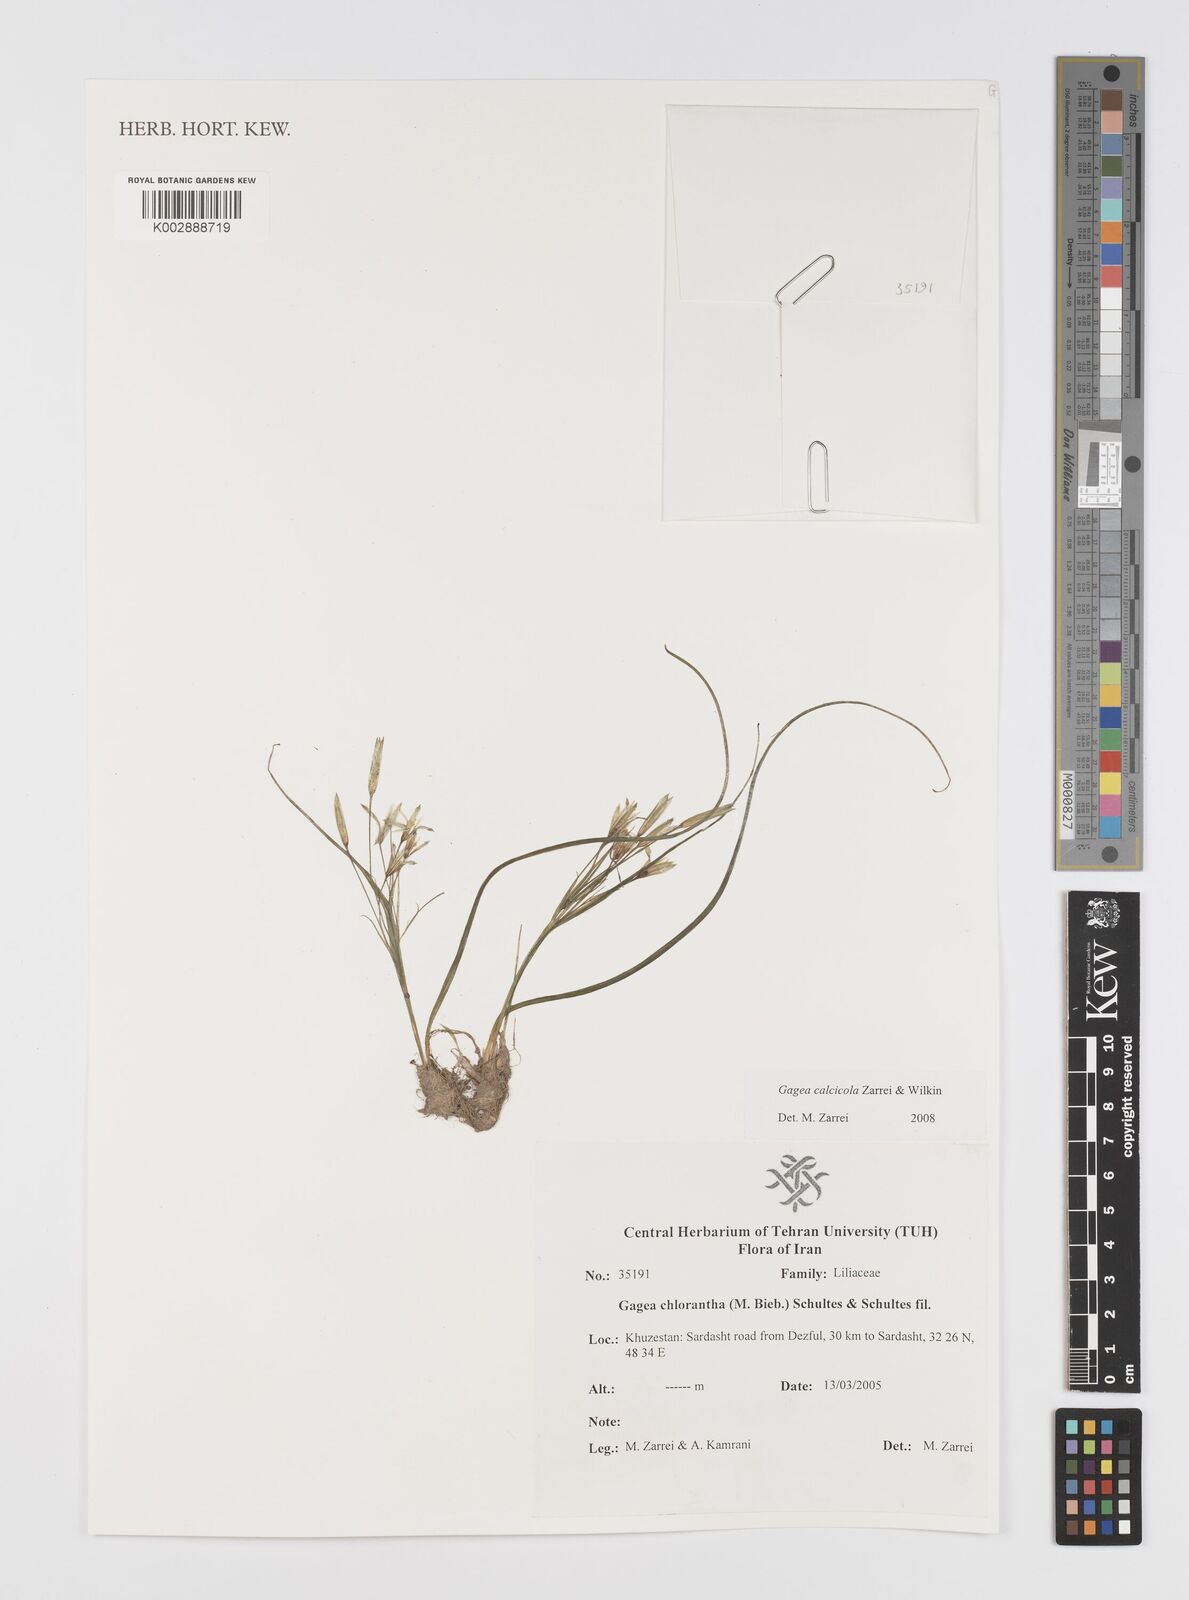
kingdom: Plantae
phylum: Tracheophyta
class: Liliopsida
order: Liliales
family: Liliaceae
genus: Gagea
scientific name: Gagea calcicola
